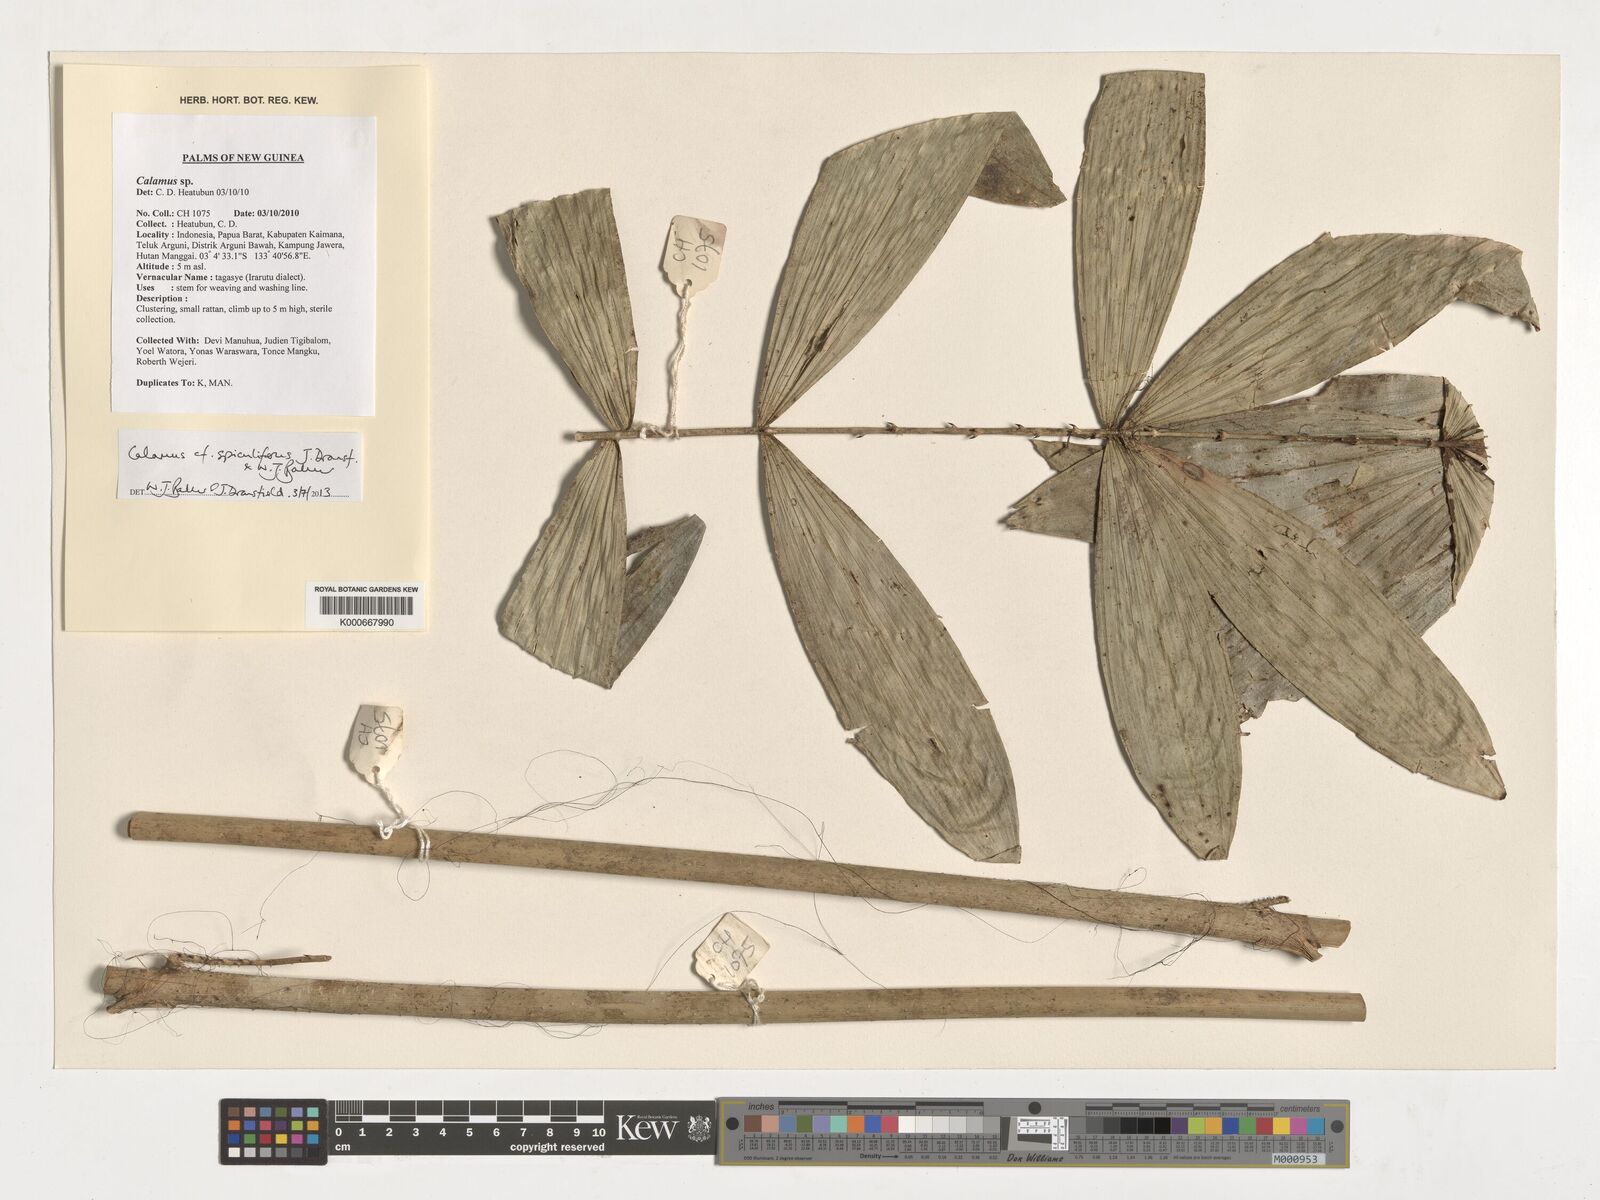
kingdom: Plantae
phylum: Tracheophyta
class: Liliopsida
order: Arecales
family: Arecaceae
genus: Calamus
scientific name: Calamus spiculifer
